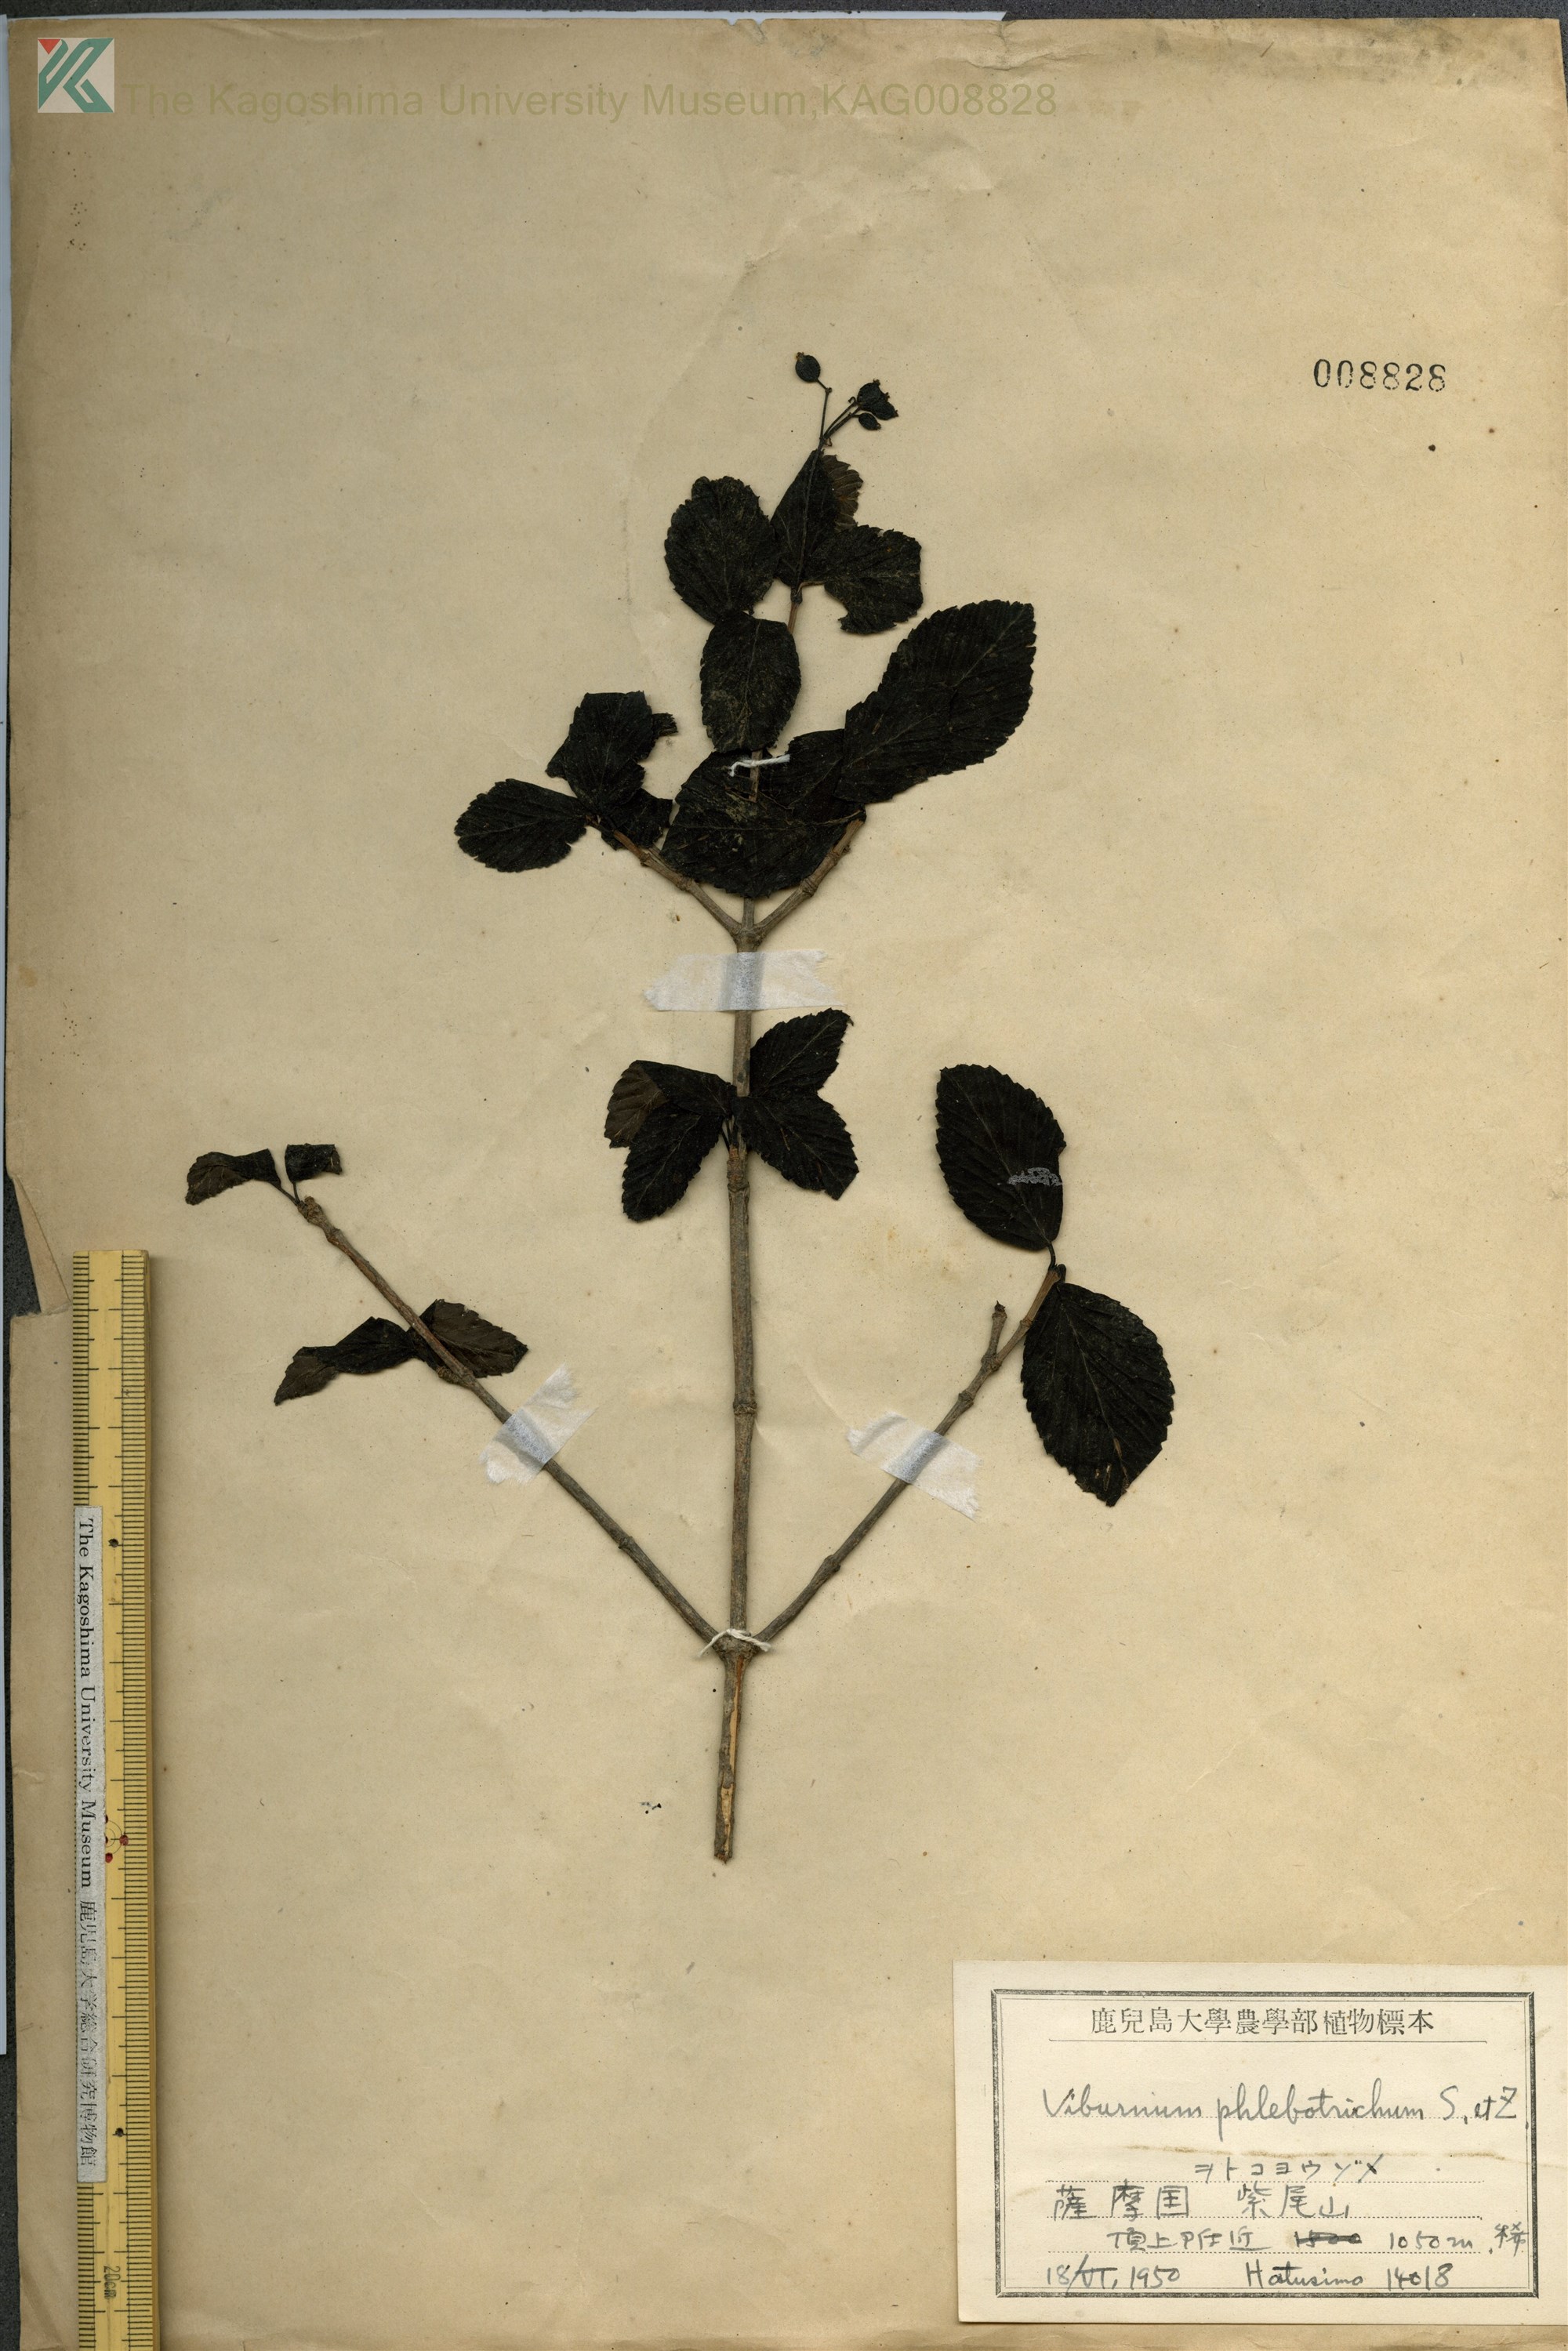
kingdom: Plantae
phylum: Tracheophyta
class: Magnoliopsida
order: Dipsacales
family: Viburnaceae
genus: Viburnum
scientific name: Viburnum phlebotrichum
